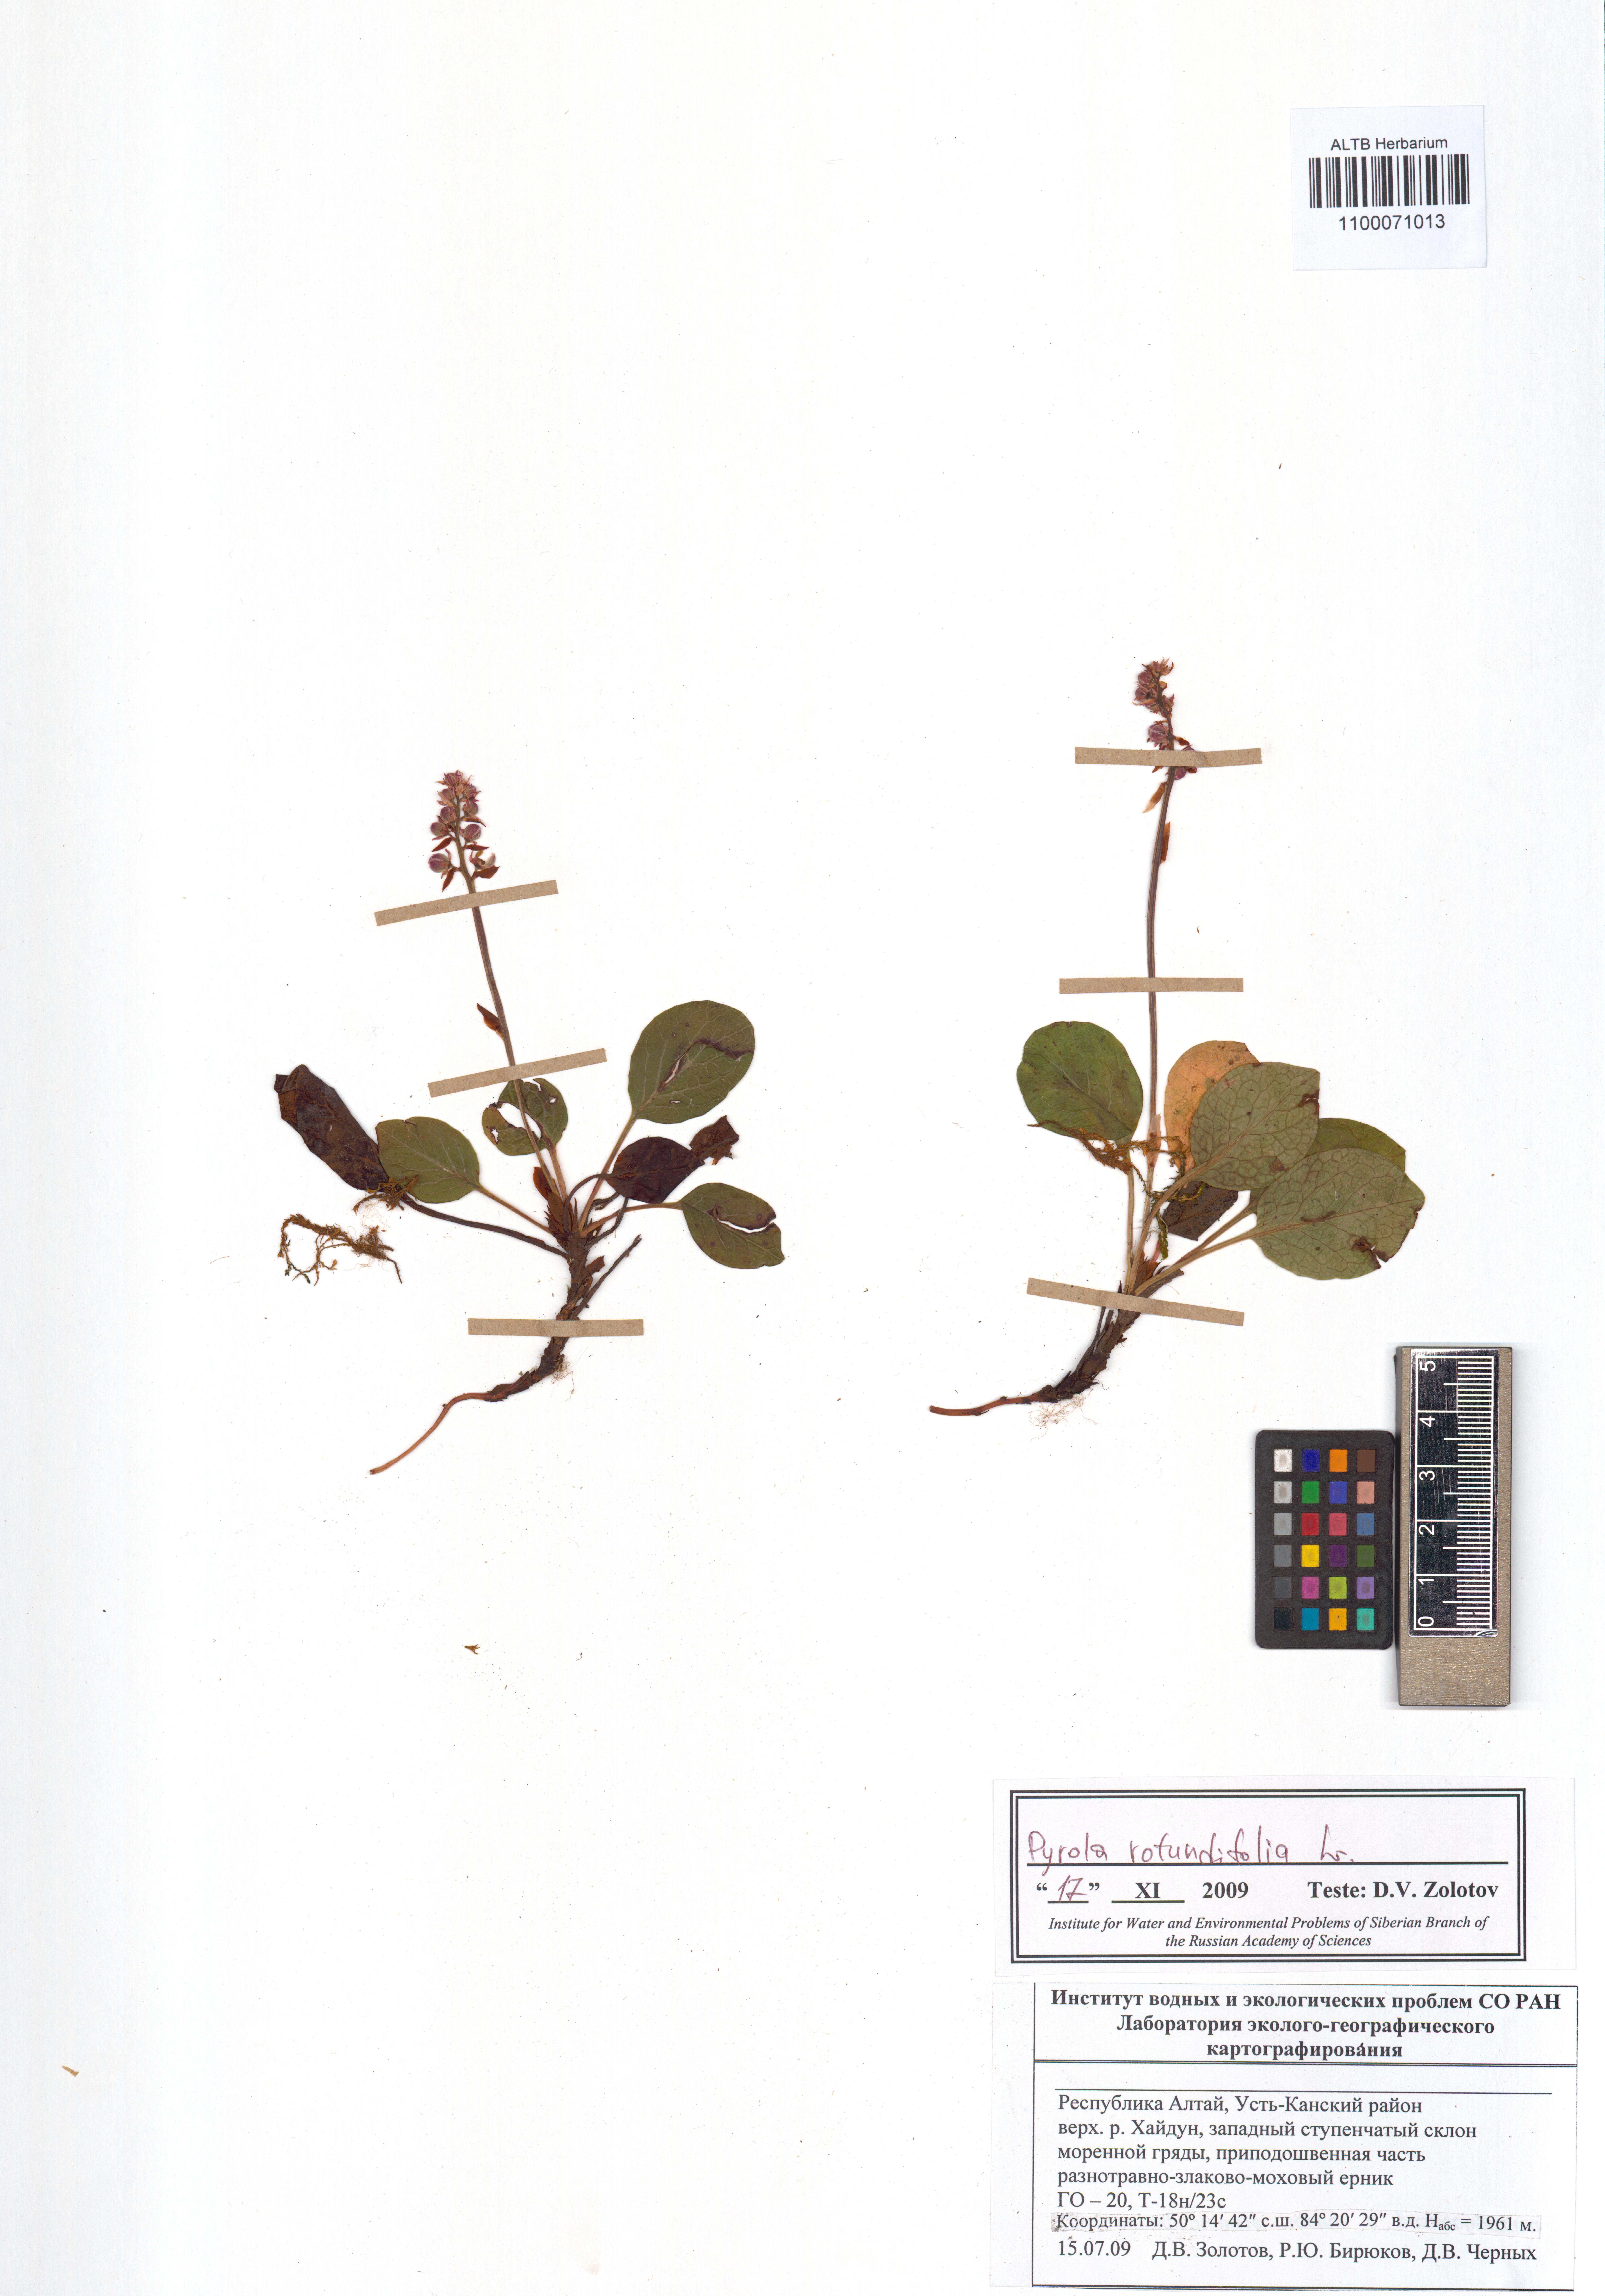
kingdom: Plantae
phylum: Tracheophyta
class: Magnoliopsida
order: Ericales
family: Ericaceae
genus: Pyrola
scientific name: Pyrola rotundifolia
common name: Round-leaved wintergreen
